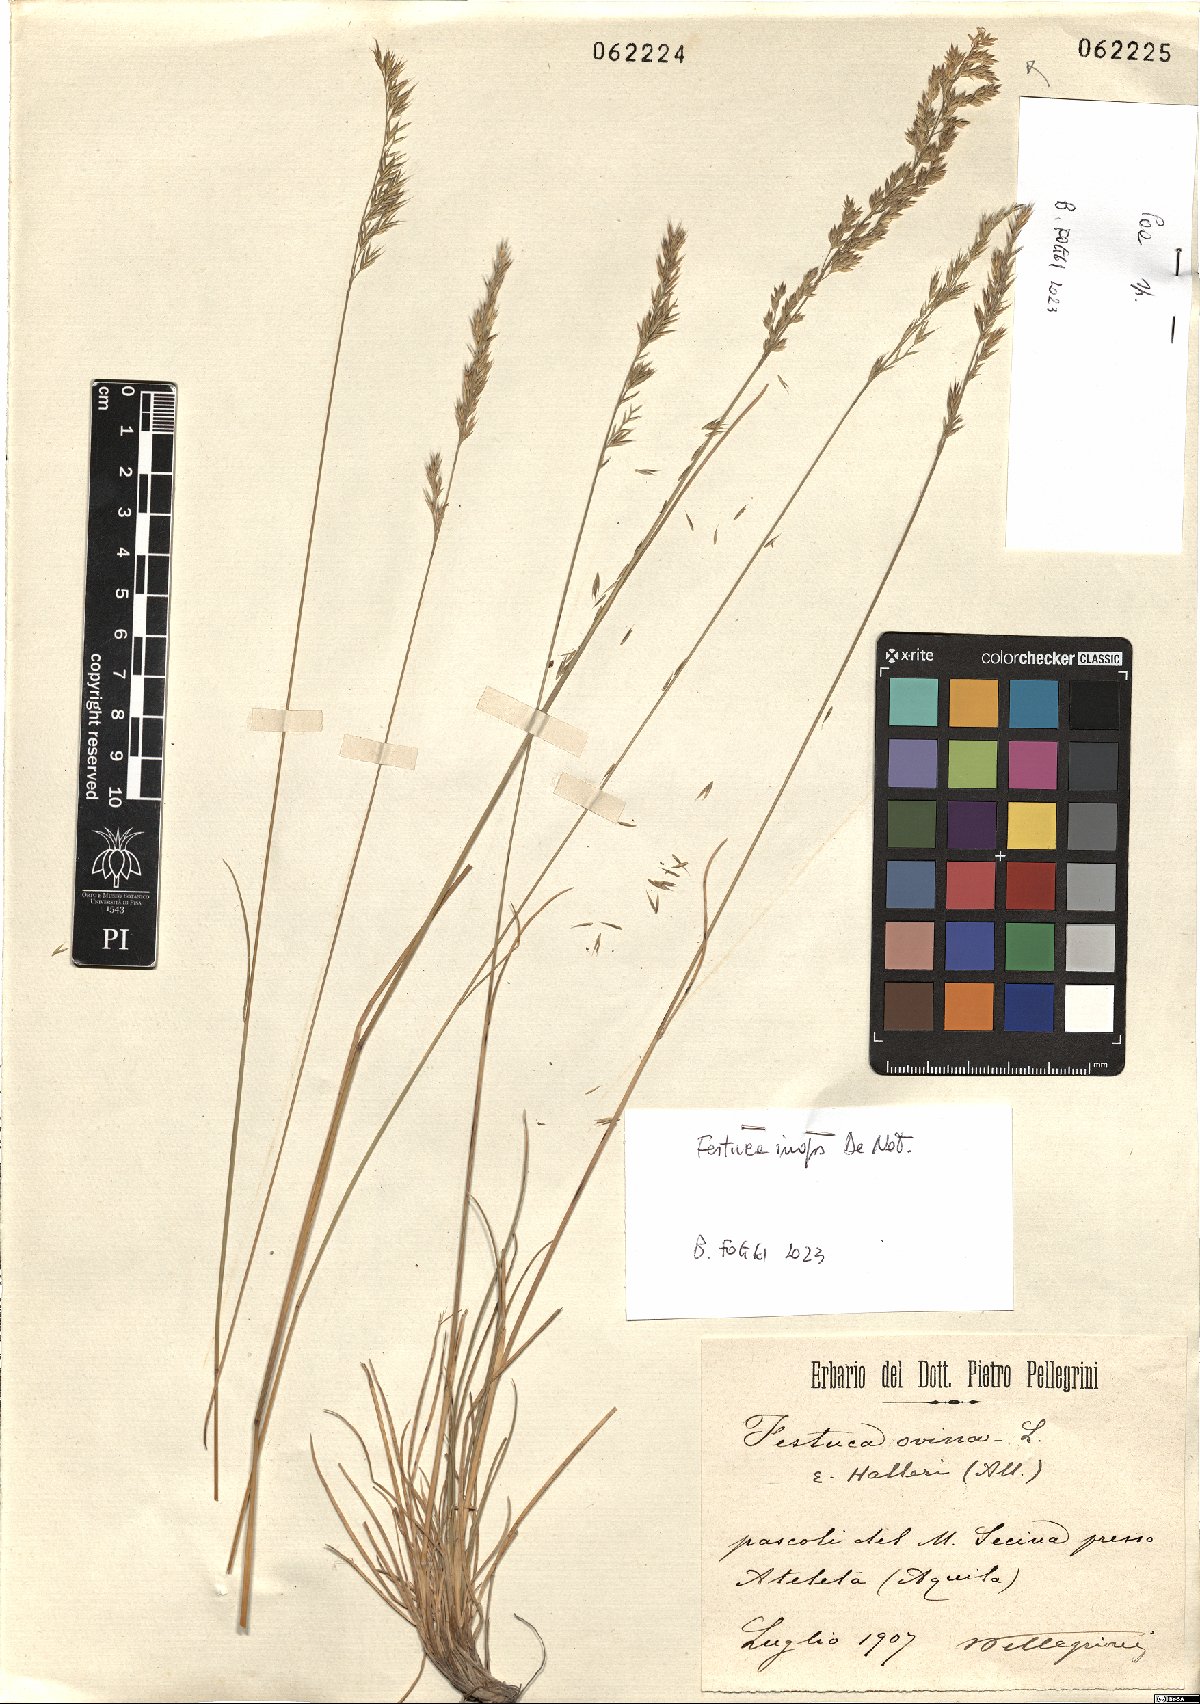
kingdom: Plantae
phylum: Tracheophyta
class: Liliopsida
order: Poales
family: Poaceae
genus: Festuca
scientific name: Festuca inops
